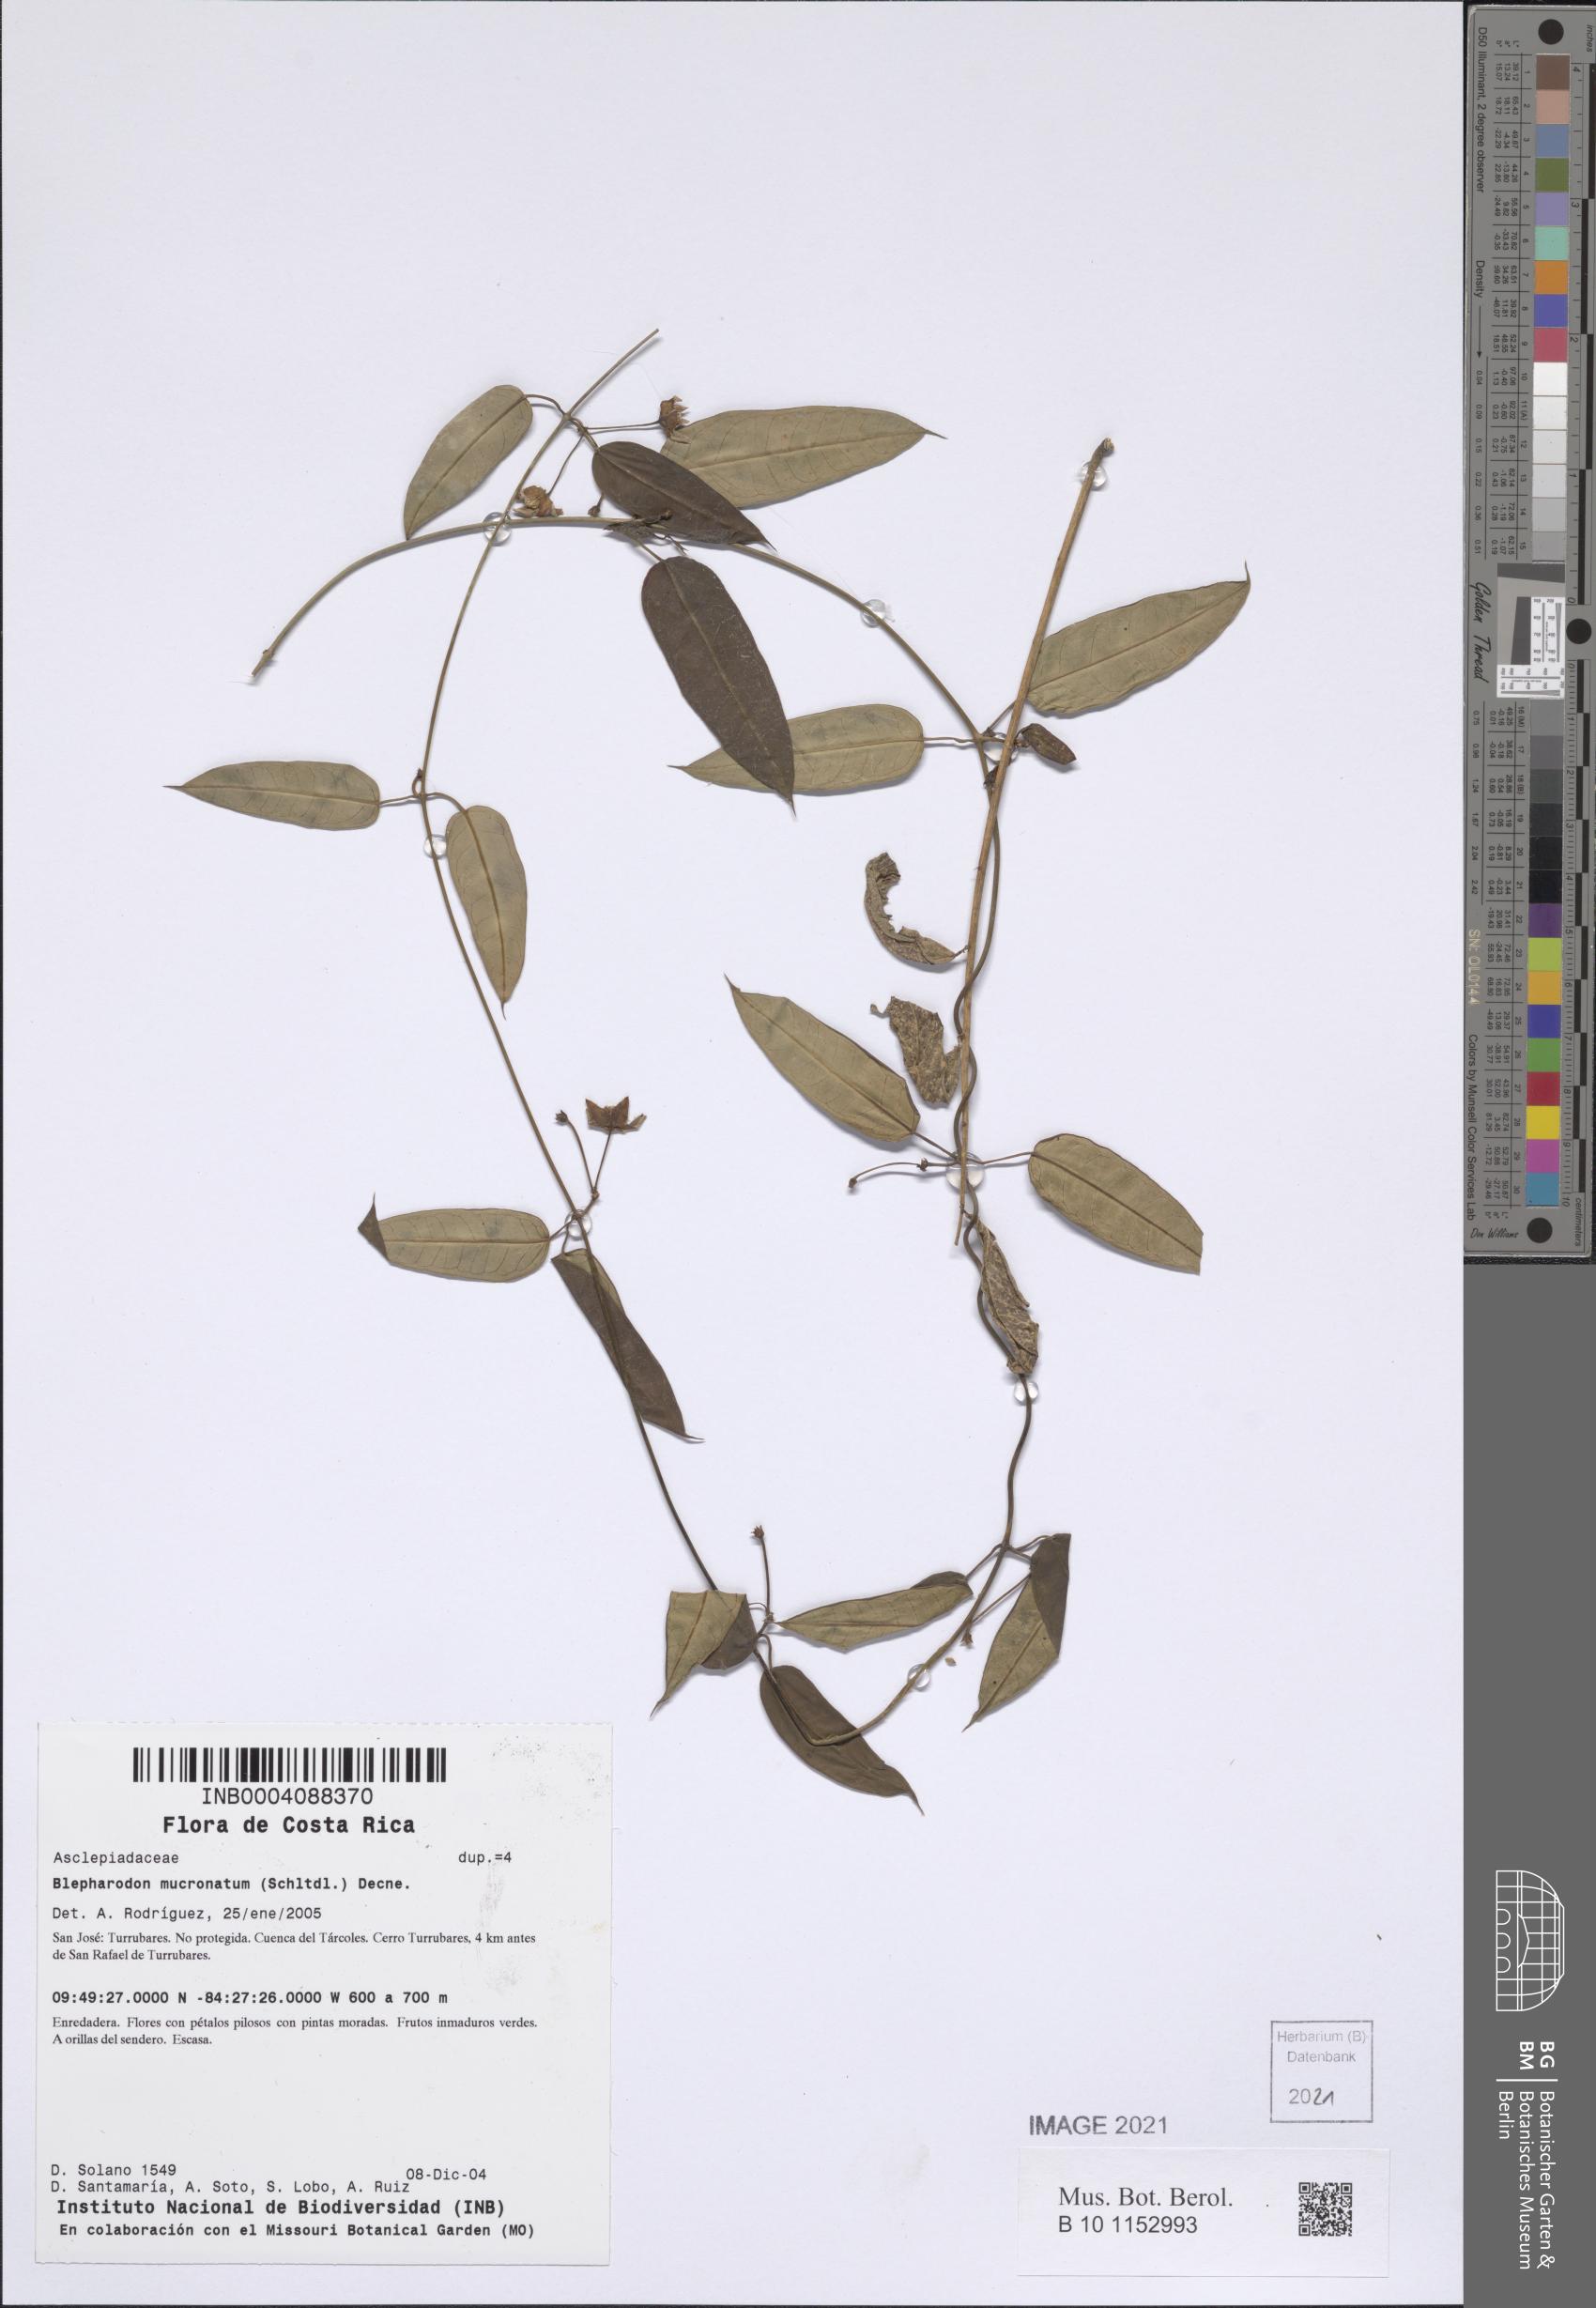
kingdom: Plantae
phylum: Tracheophyta
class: Magnoliopsida
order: Gentianales
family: Apocynaceae
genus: Vailia
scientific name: Vailia anomala
